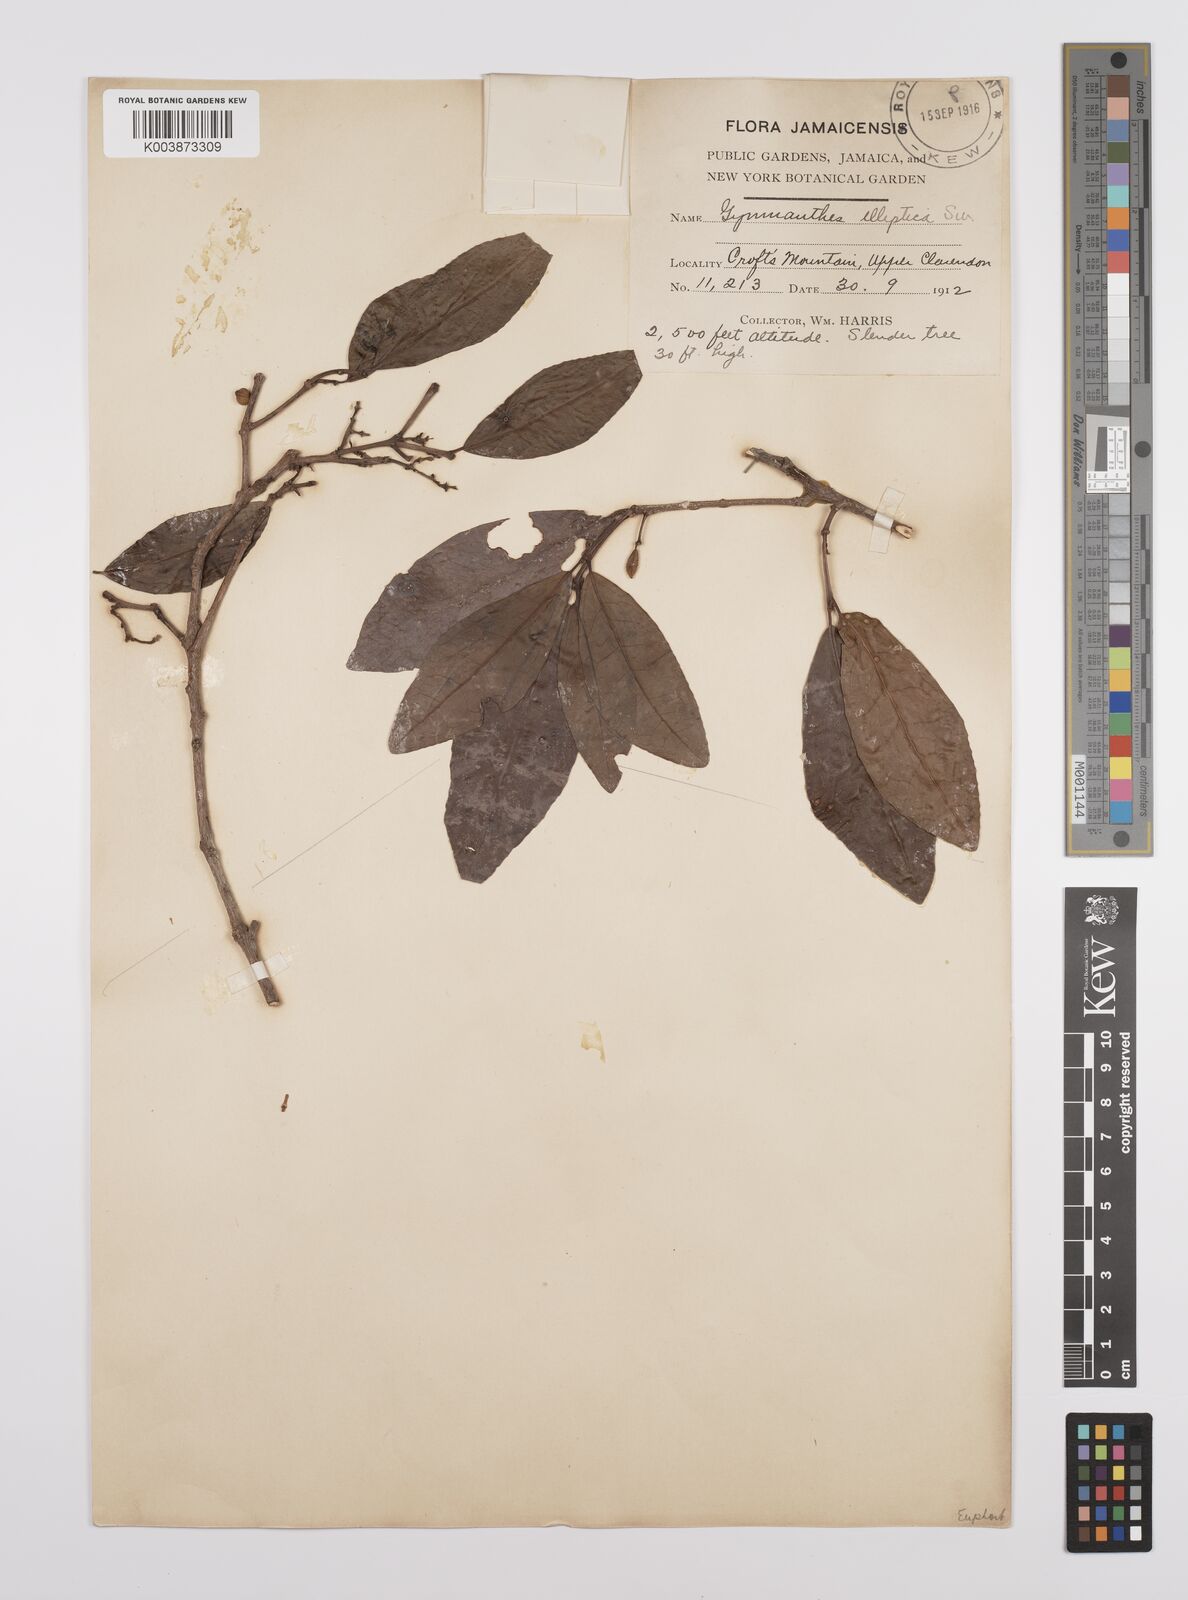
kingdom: Plantae
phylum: Tracheophyta
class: Magnoliopsida
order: Malpighiales
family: Euphorbiaceae
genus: Dendrocousinsia
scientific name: Dendrocousinsia elliptica
